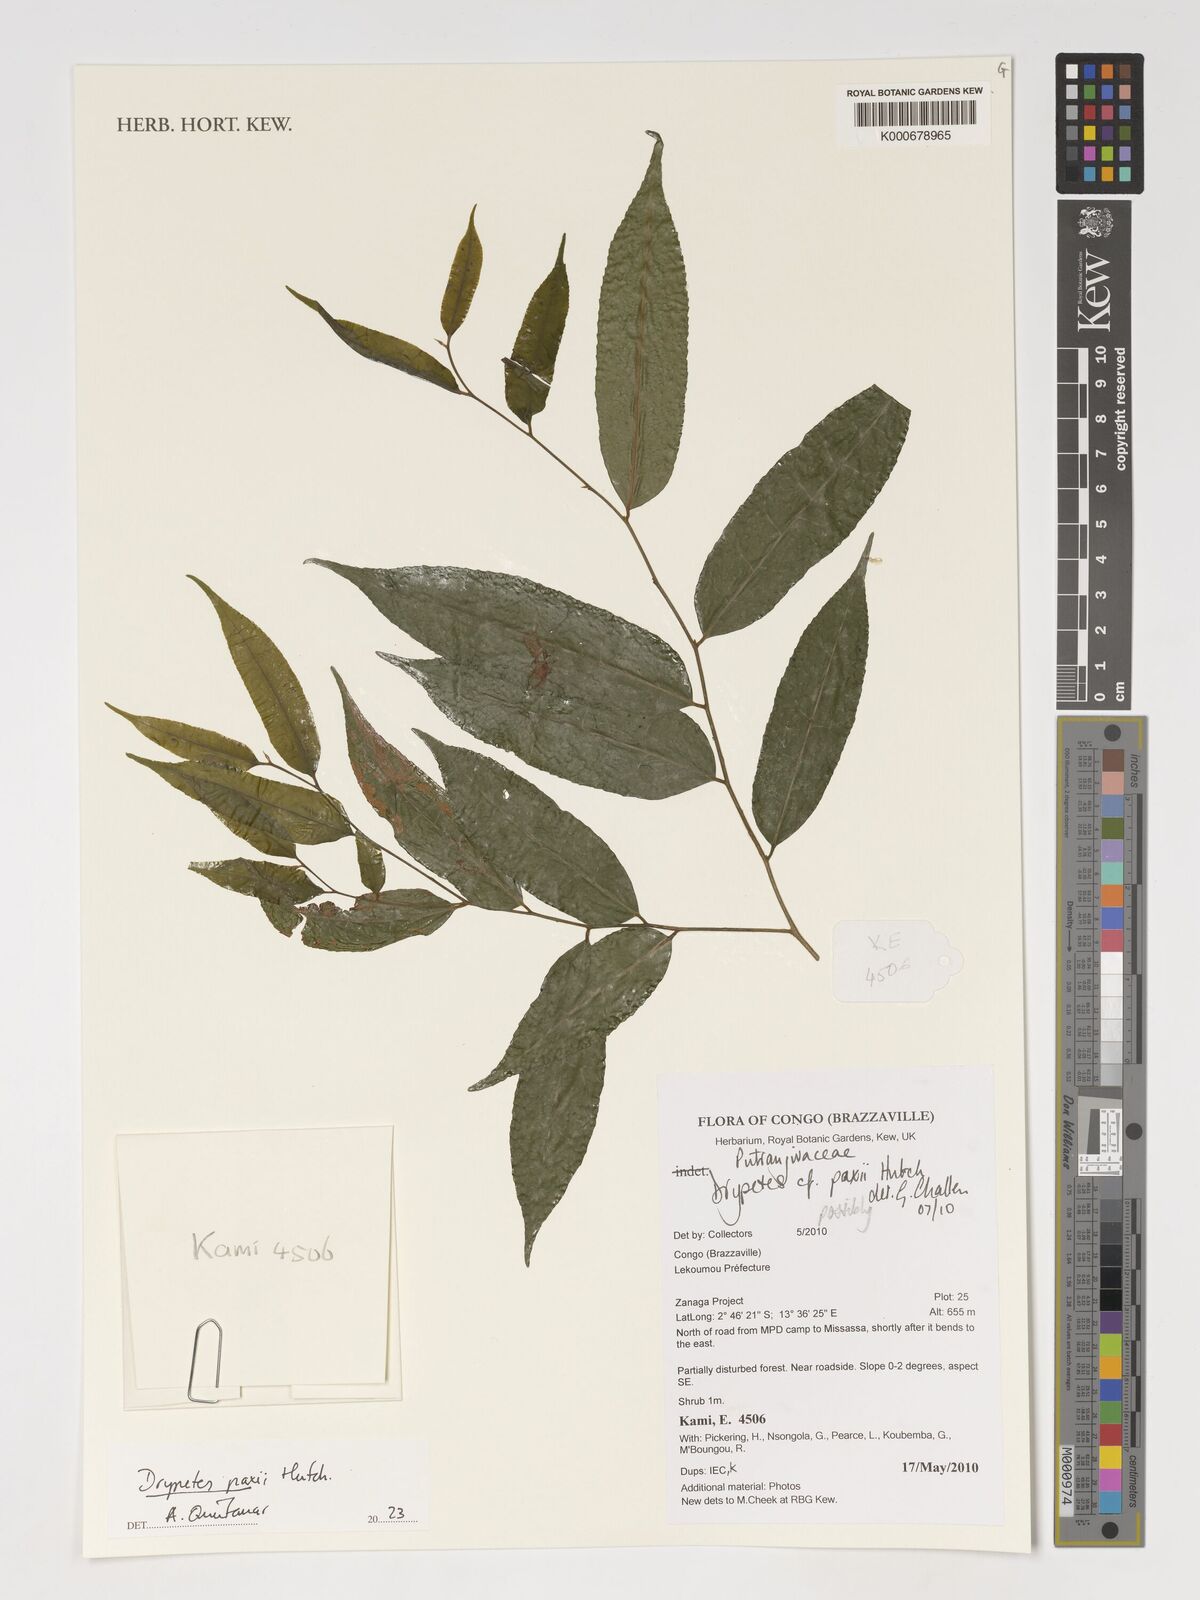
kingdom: Plantae
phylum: Tracheophyta
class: Magnoliopsida
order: Malpighiales
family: Putranjivaceae
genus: Drypetes
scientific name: Drypetes paxii
